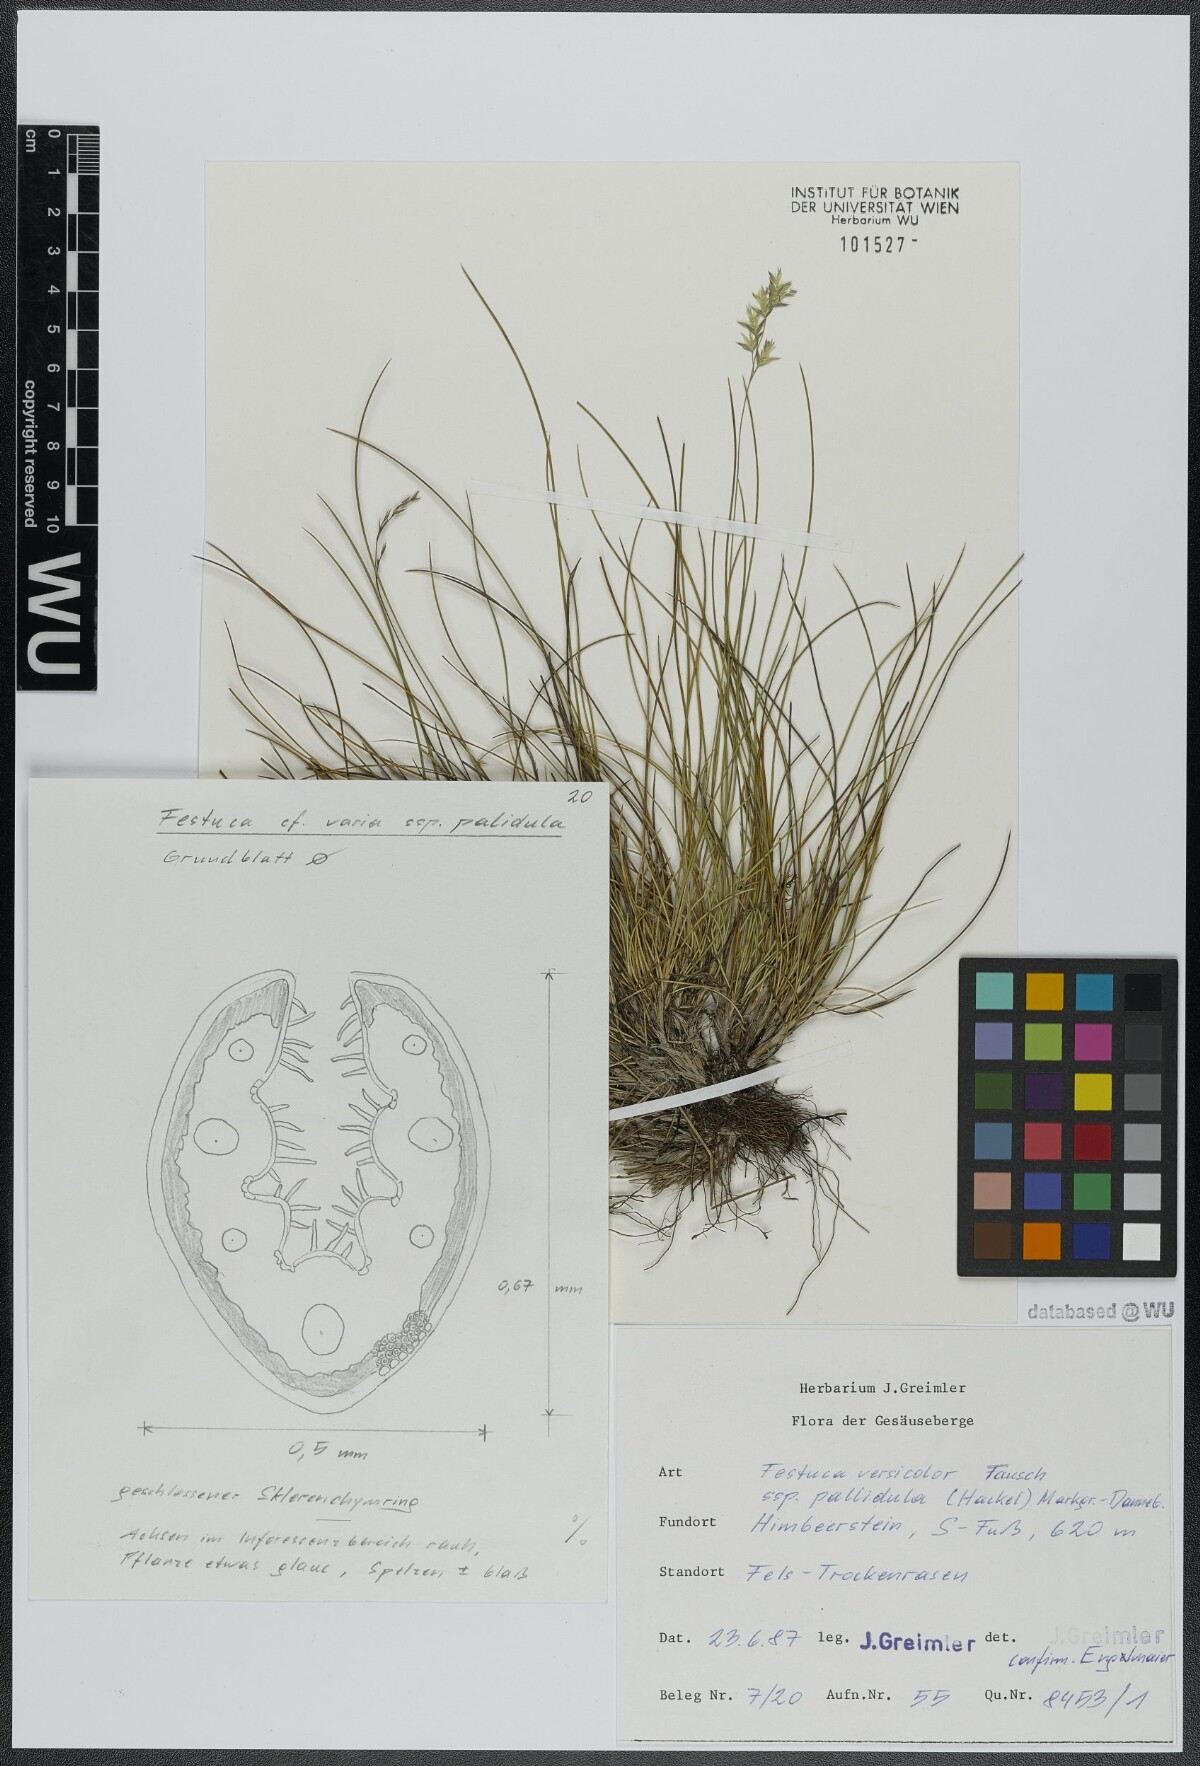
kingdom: Plantae
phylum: Tracheophyta
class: Liliopsida
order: Poales
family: Poaceae
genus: Festuca
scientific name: Festuca varia
